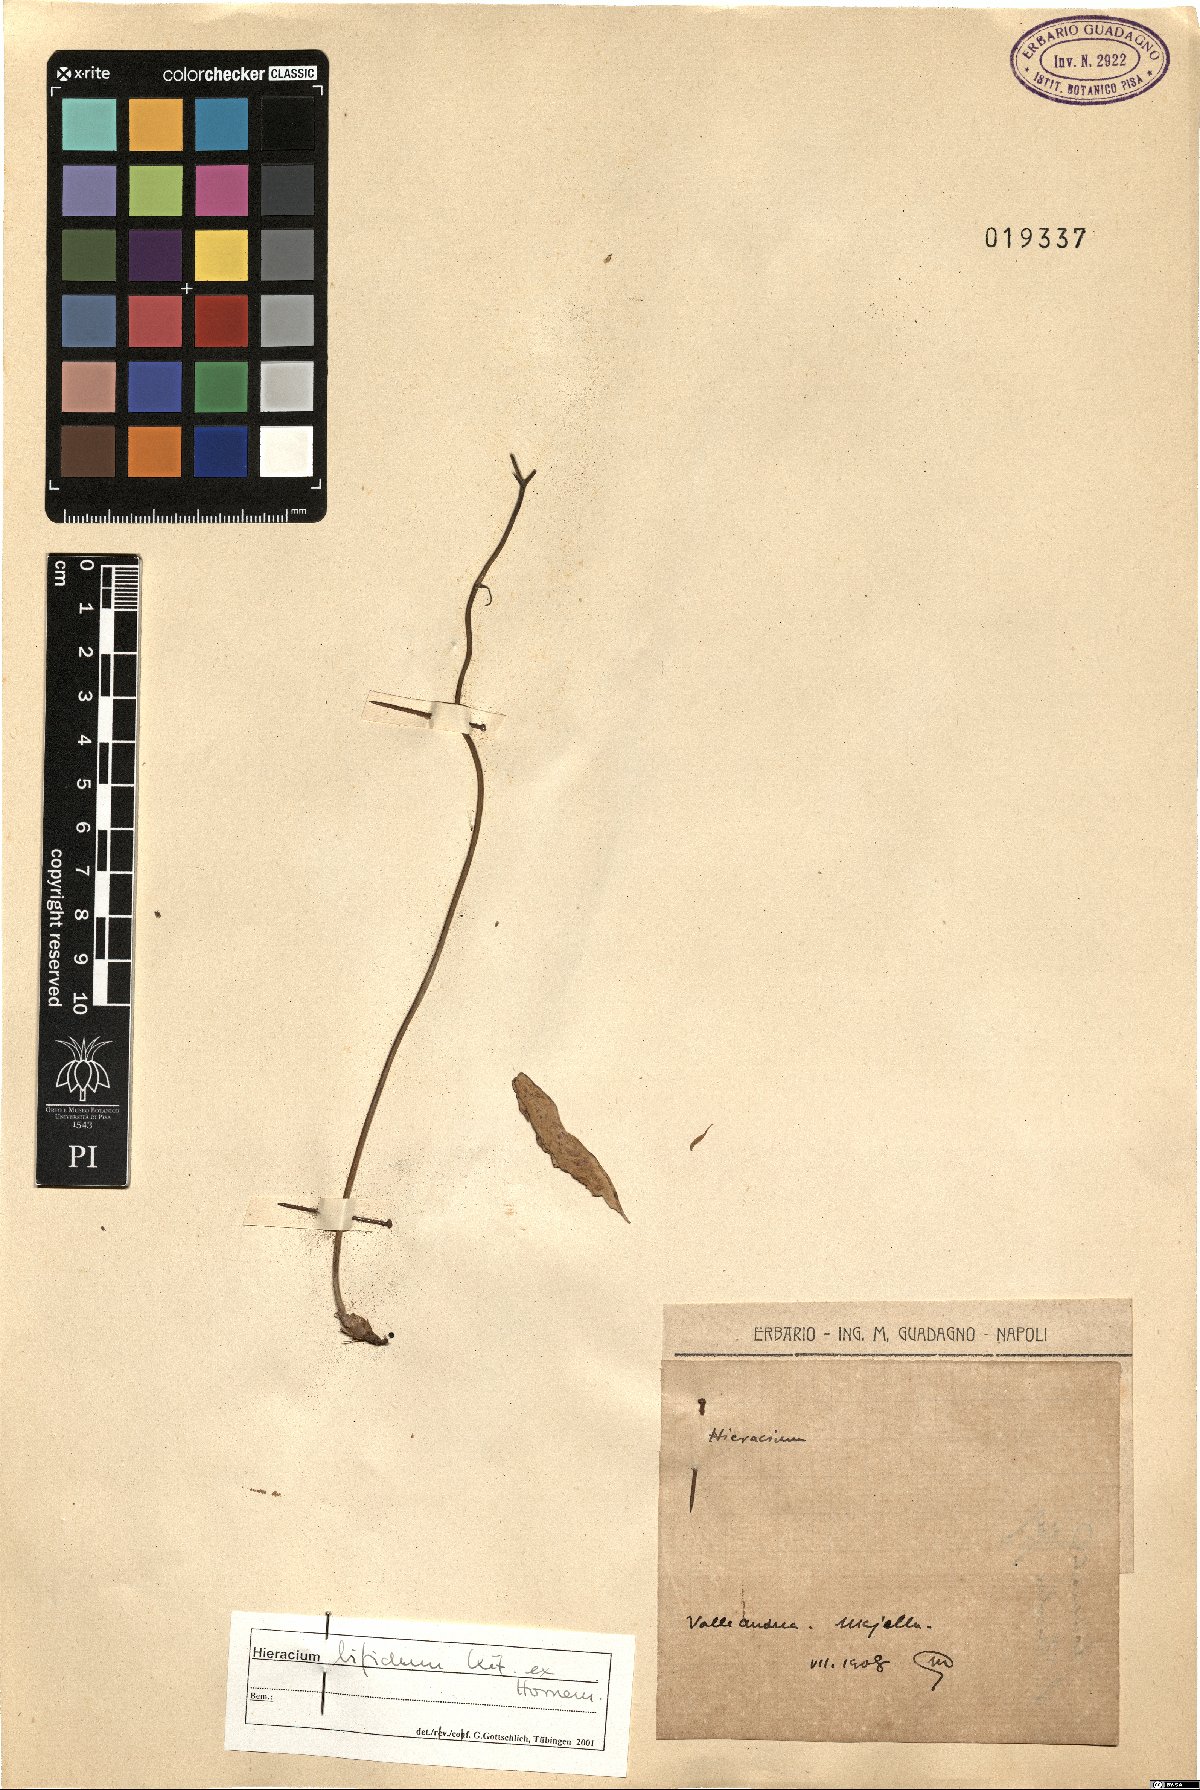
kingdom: Plantae
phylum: Tracheophyta
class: Magnoliopsida
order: Asterales
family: Asteraceae
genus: Hieracium
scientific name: Hieracium bifidum
